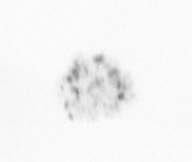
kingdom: Chromista
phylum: Ochrophyta
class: Bacillariophyceae
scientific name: Bacillariophyceae
